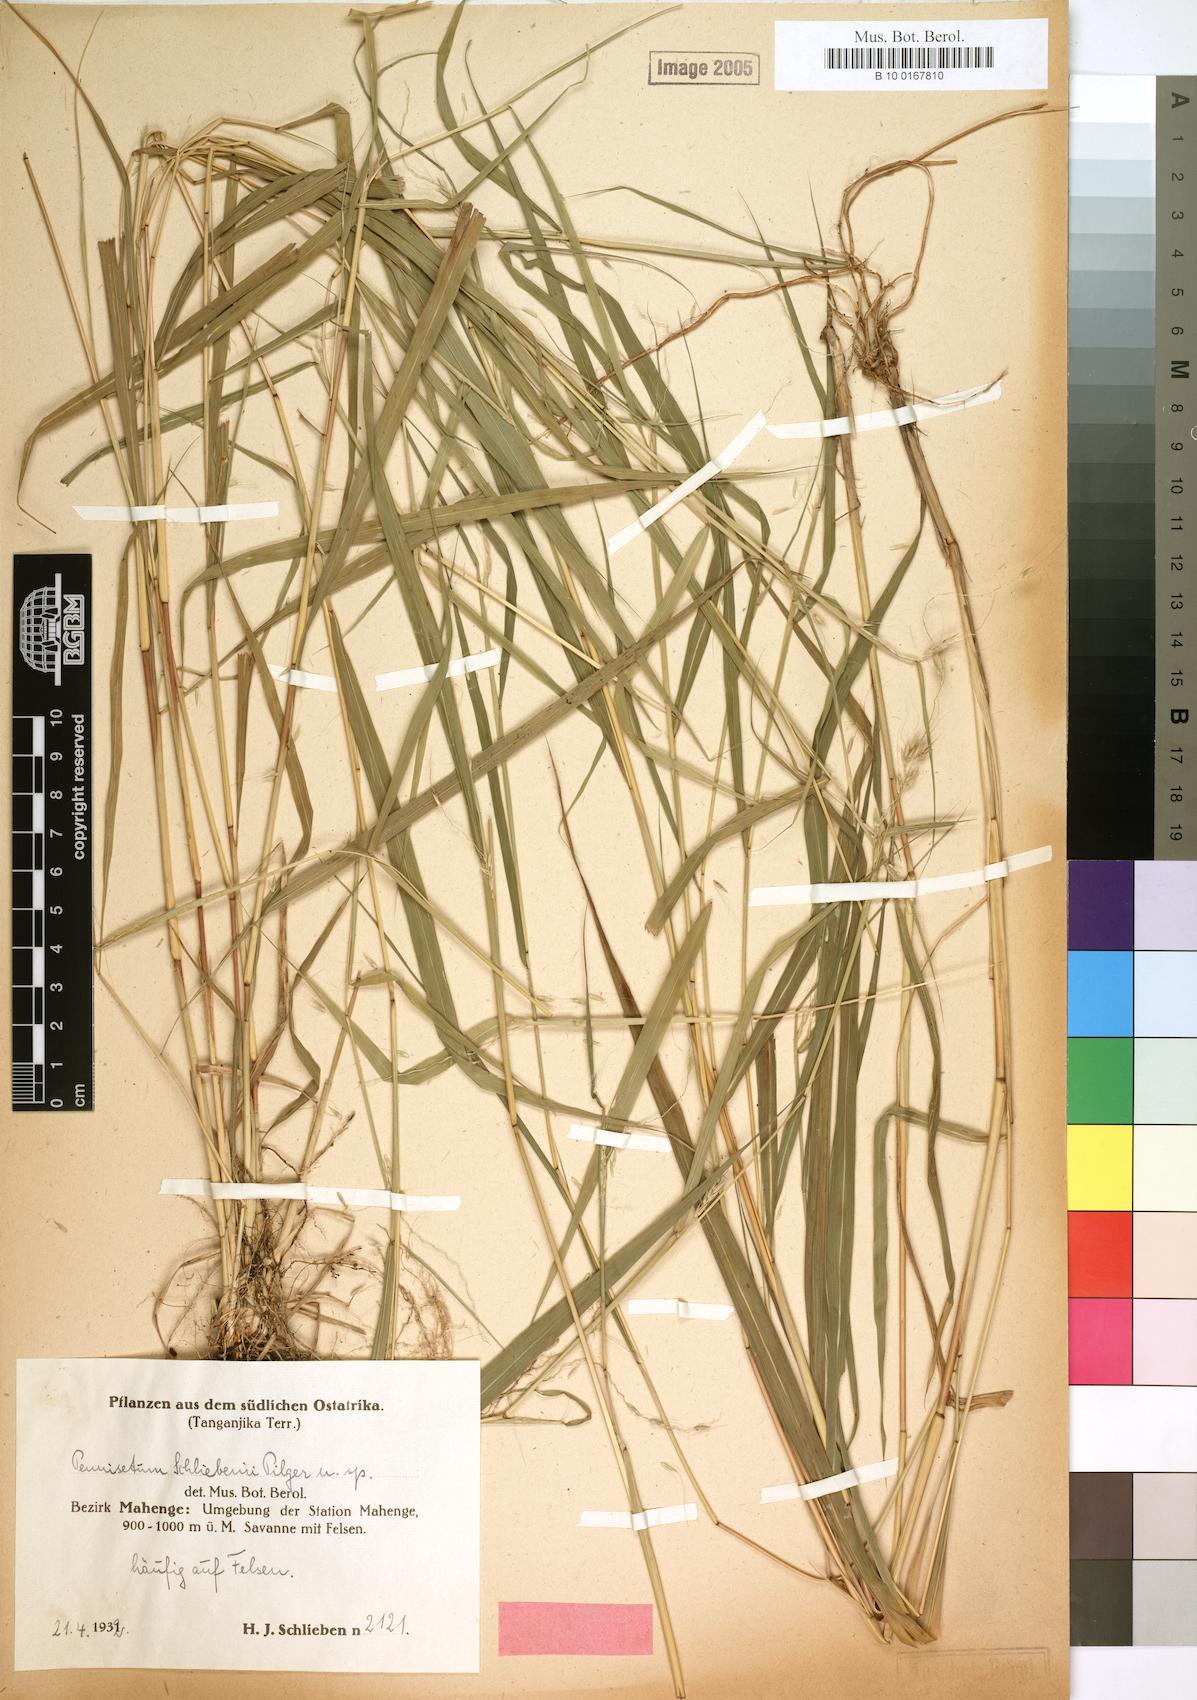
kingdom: Plantae
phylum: Tracheophyta
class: Liliopsida
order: Poales
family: Poaceae
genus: Cenchrus
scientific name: Cenchrus trisetus
